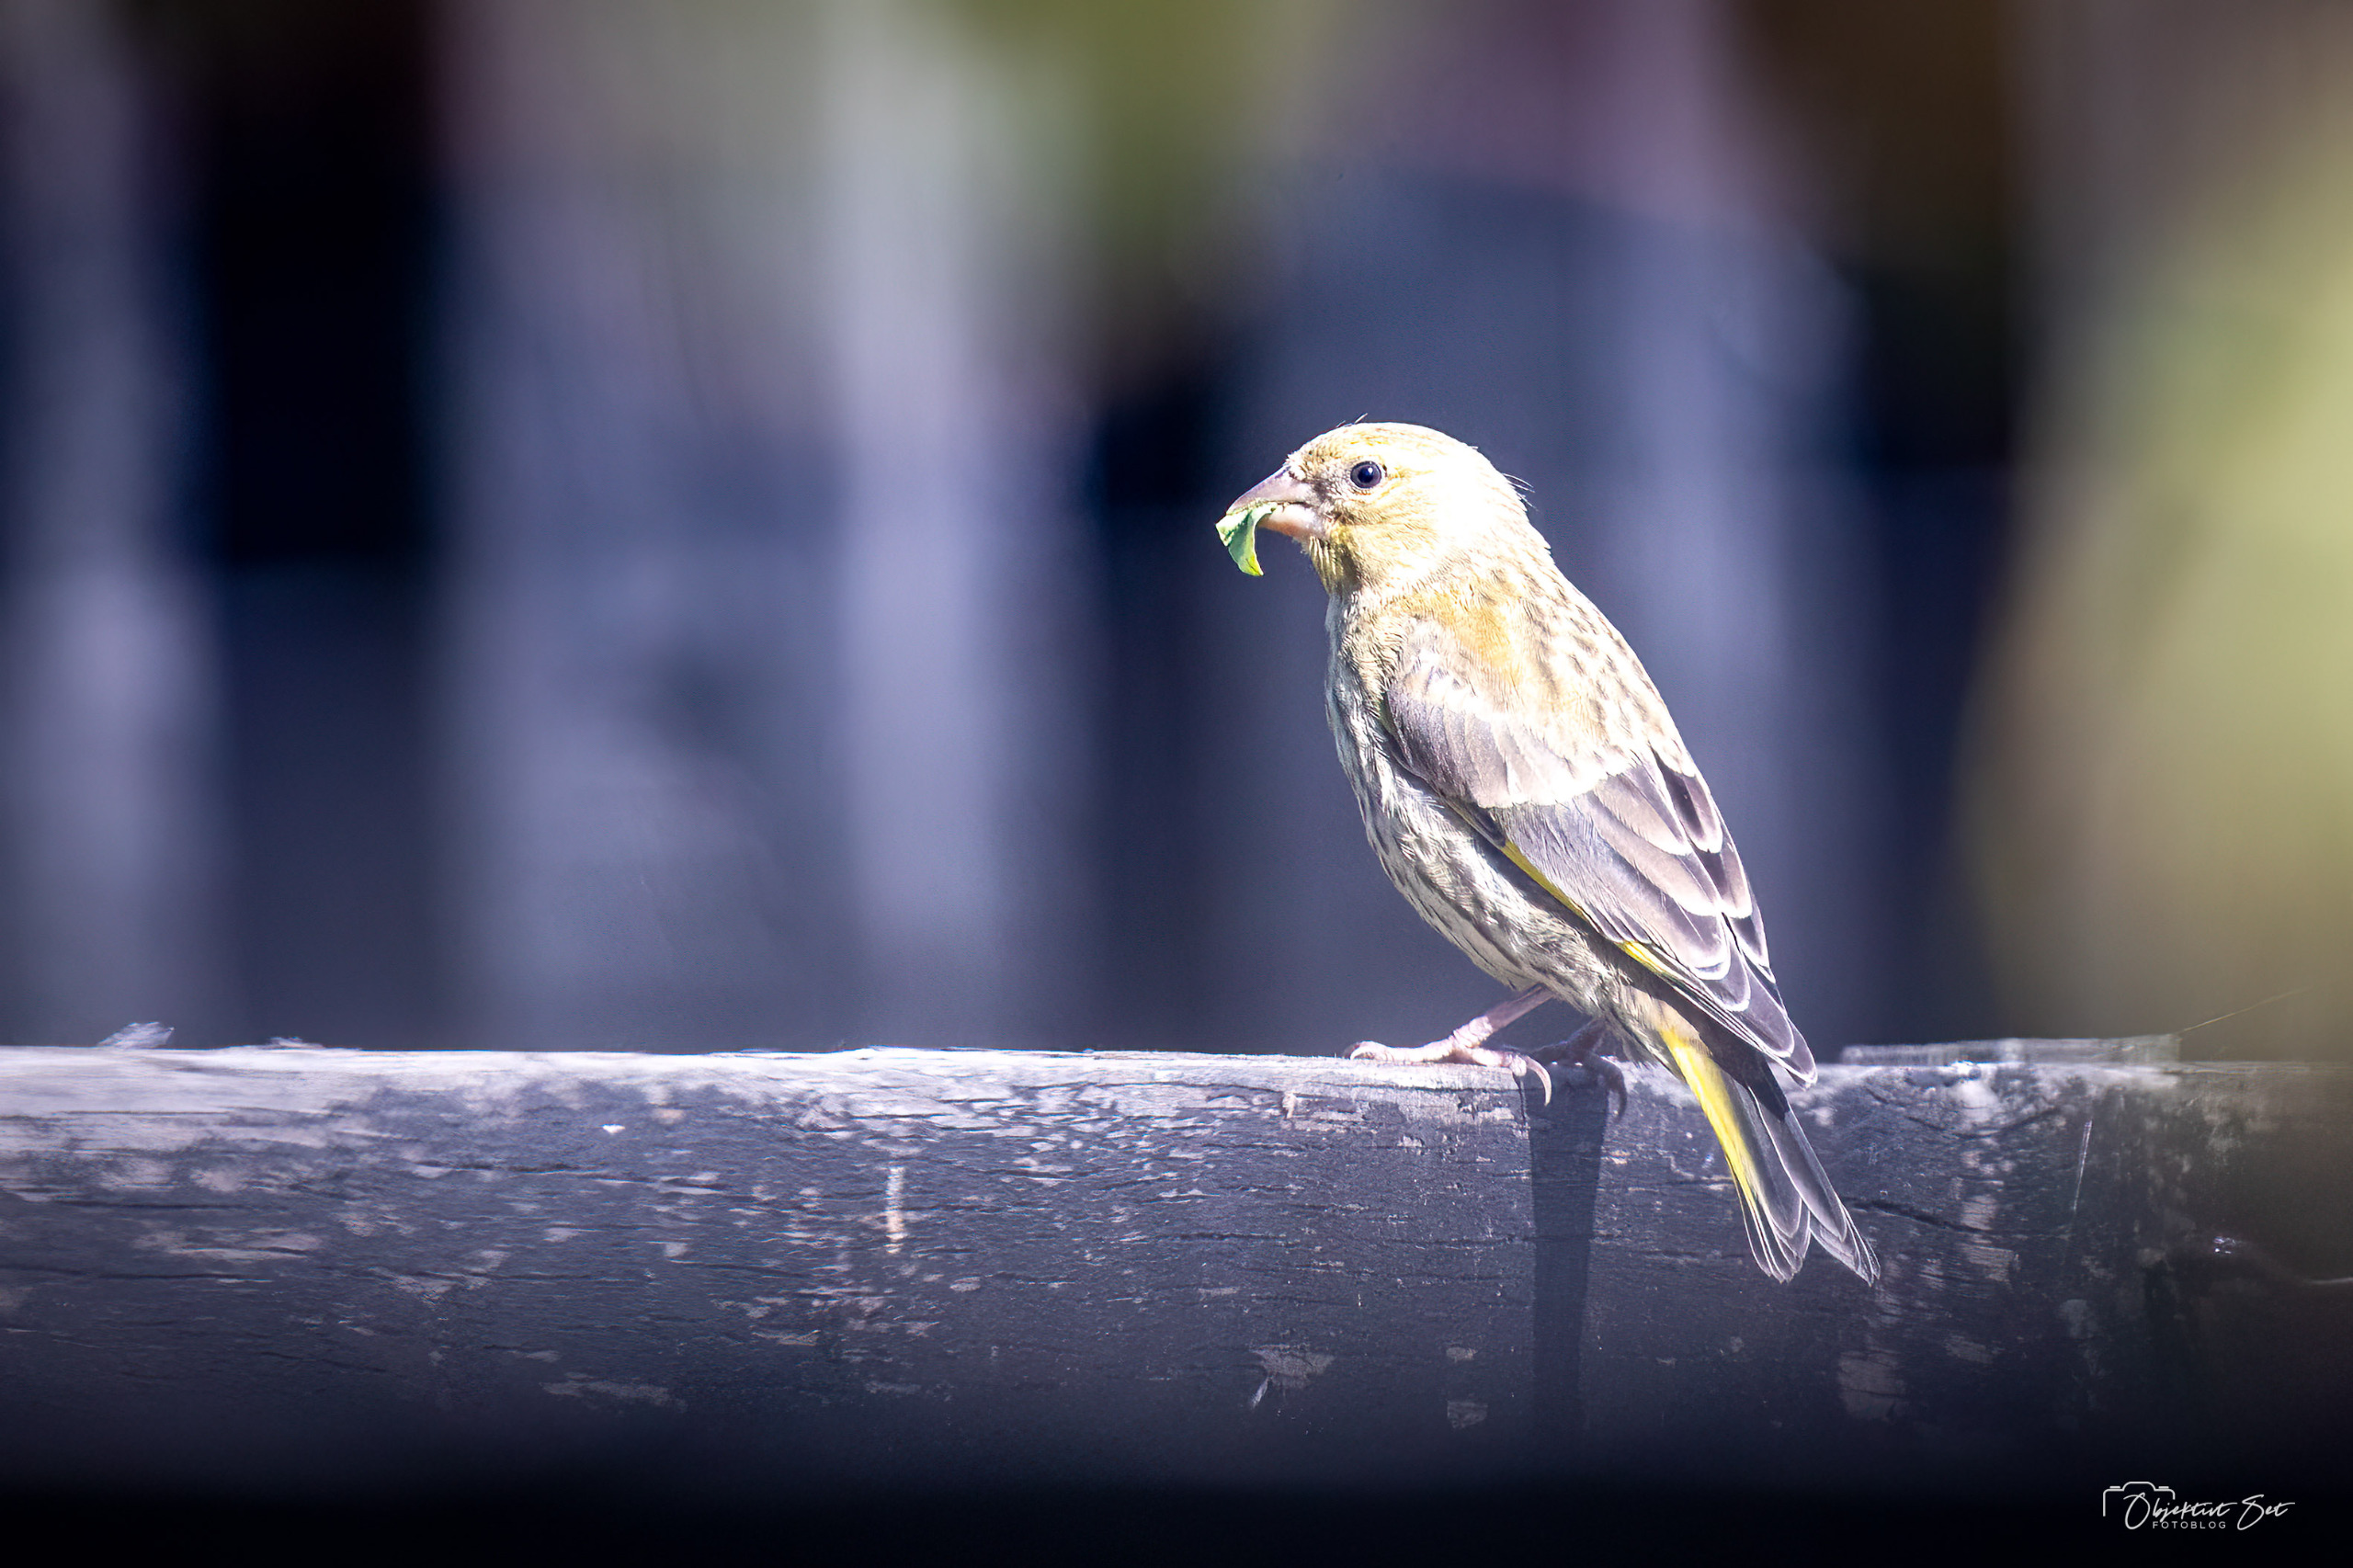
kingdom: Plantae
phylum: Tracheophyta
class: Liliopsida
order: Poales
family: Poaceae
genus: Chloris
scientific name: Chloris chloris
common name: Grønirisk
